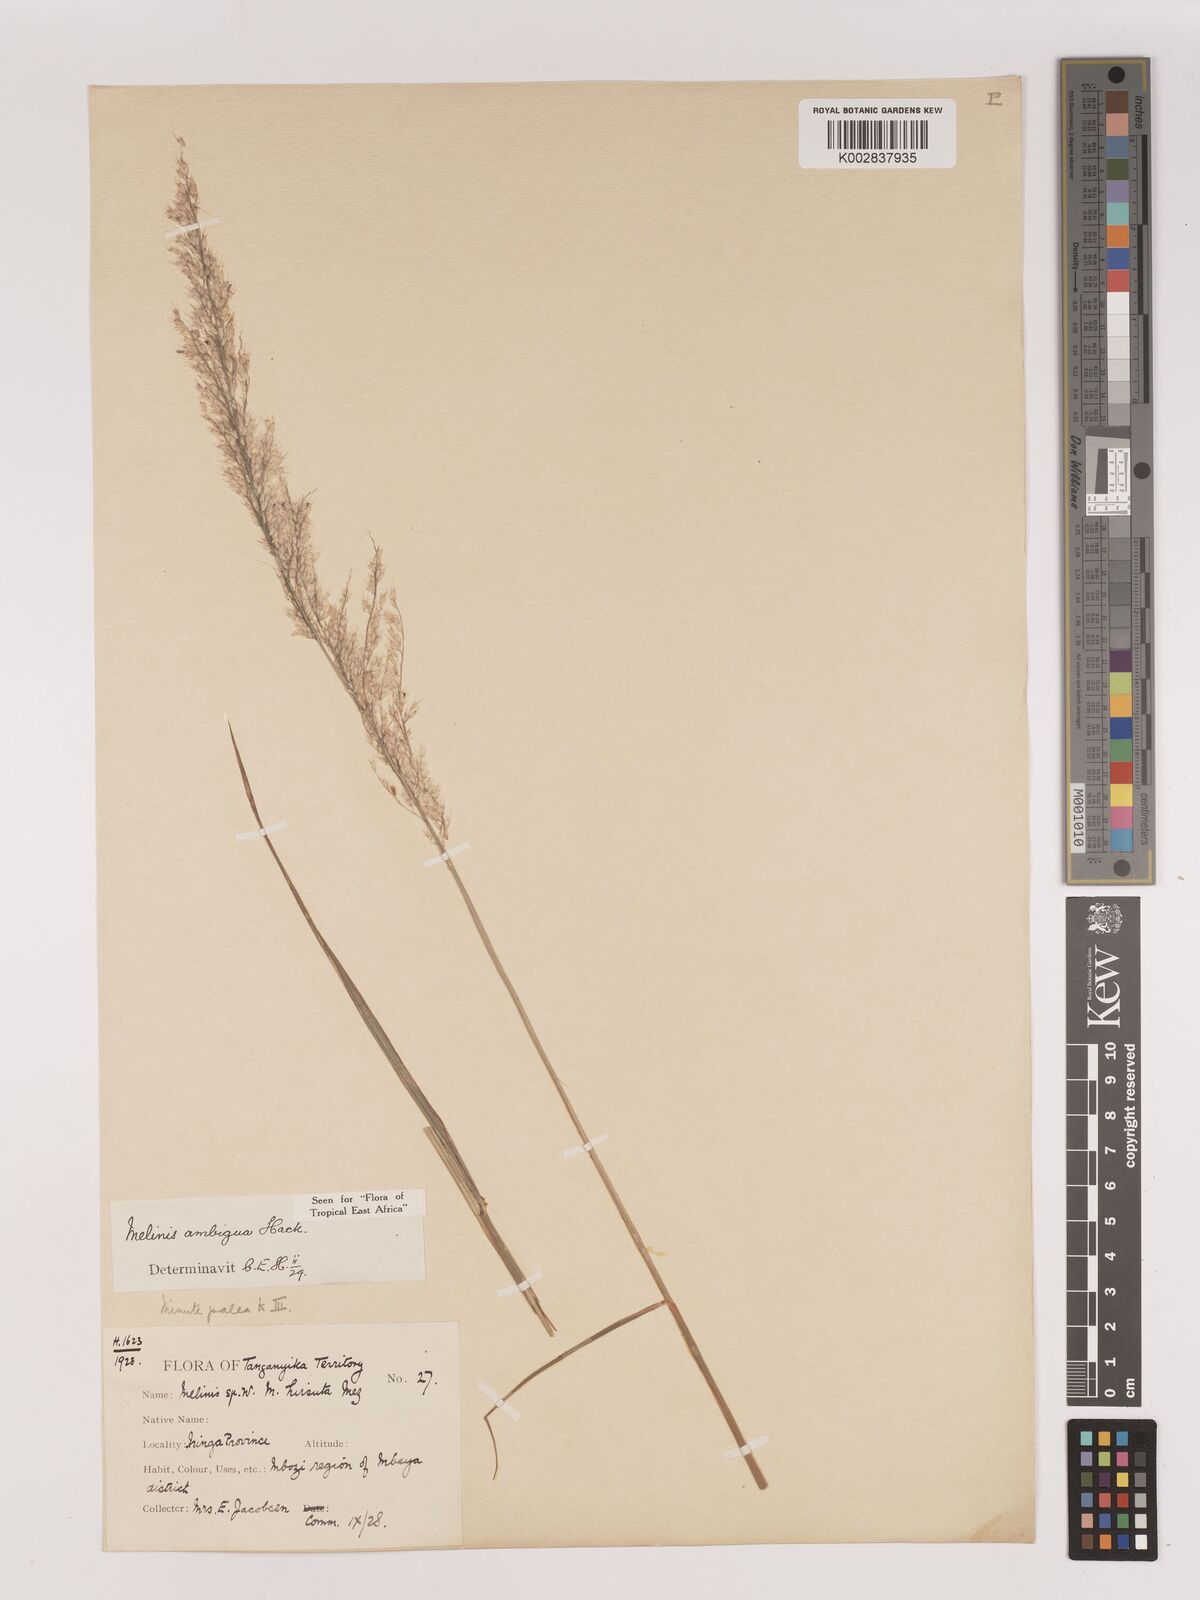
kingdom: Plantae
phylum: Tracheophyta
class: Liliopsida
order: Poales
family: Poaceae
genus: Melinis
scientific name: Melinis ambigua
